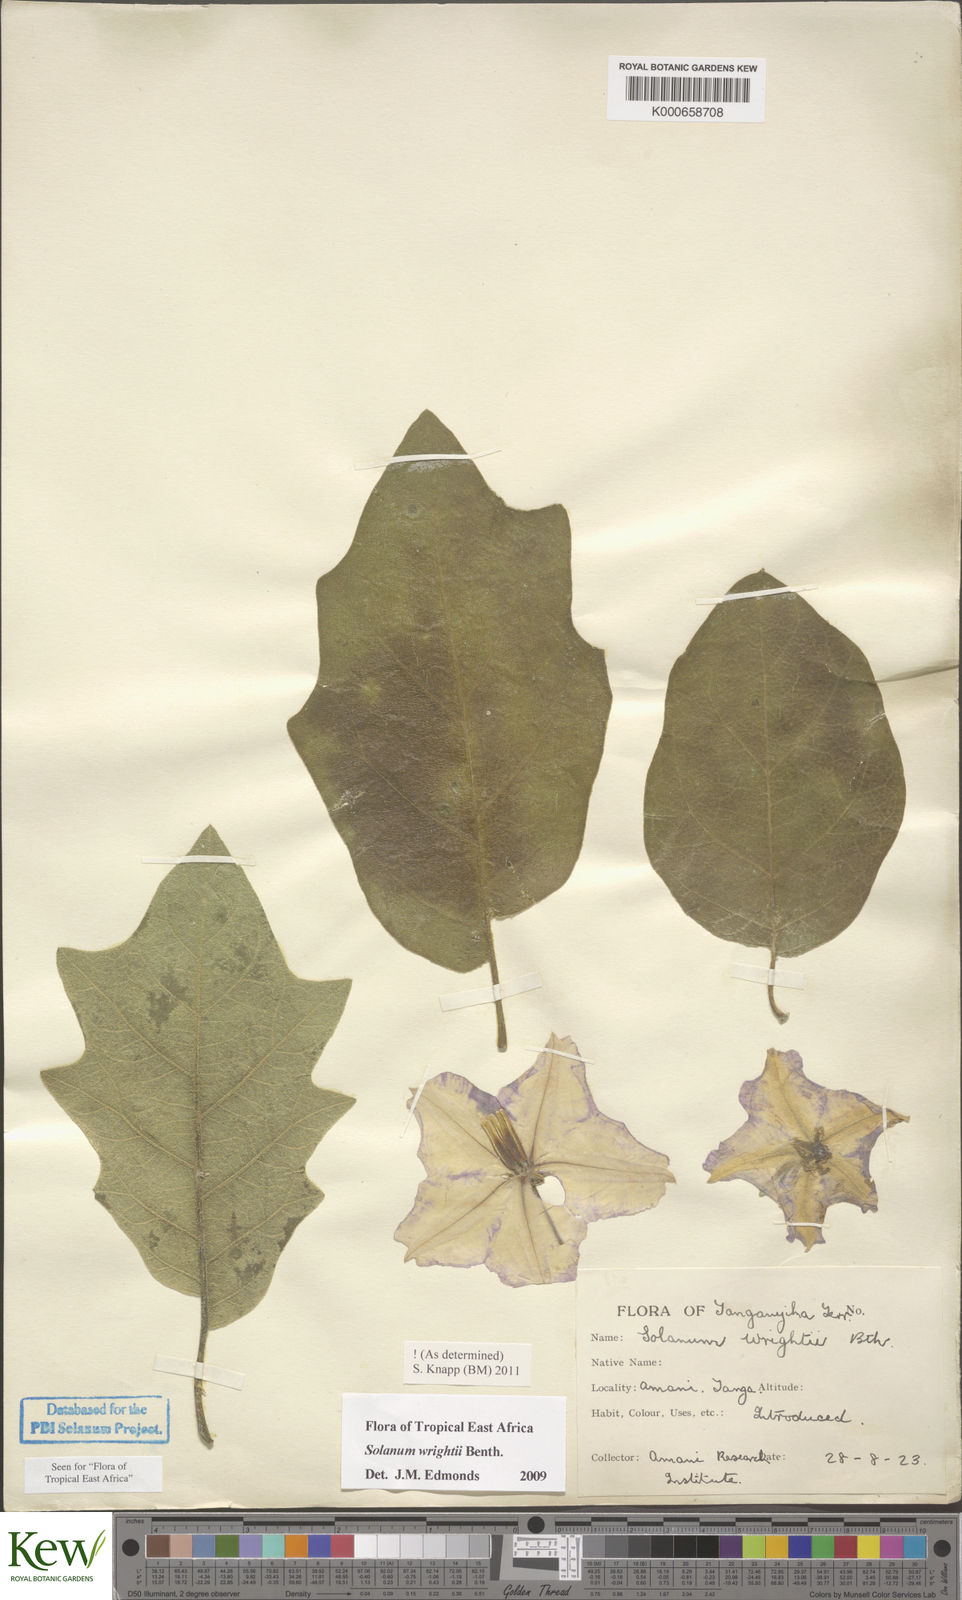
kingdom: Plantae
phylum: Tracheophyta
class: Magnoliopsida
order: Solanales
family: Solanaceae
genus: Solanum
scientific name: Solanum wrightii
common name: Brazilian potato-tree
